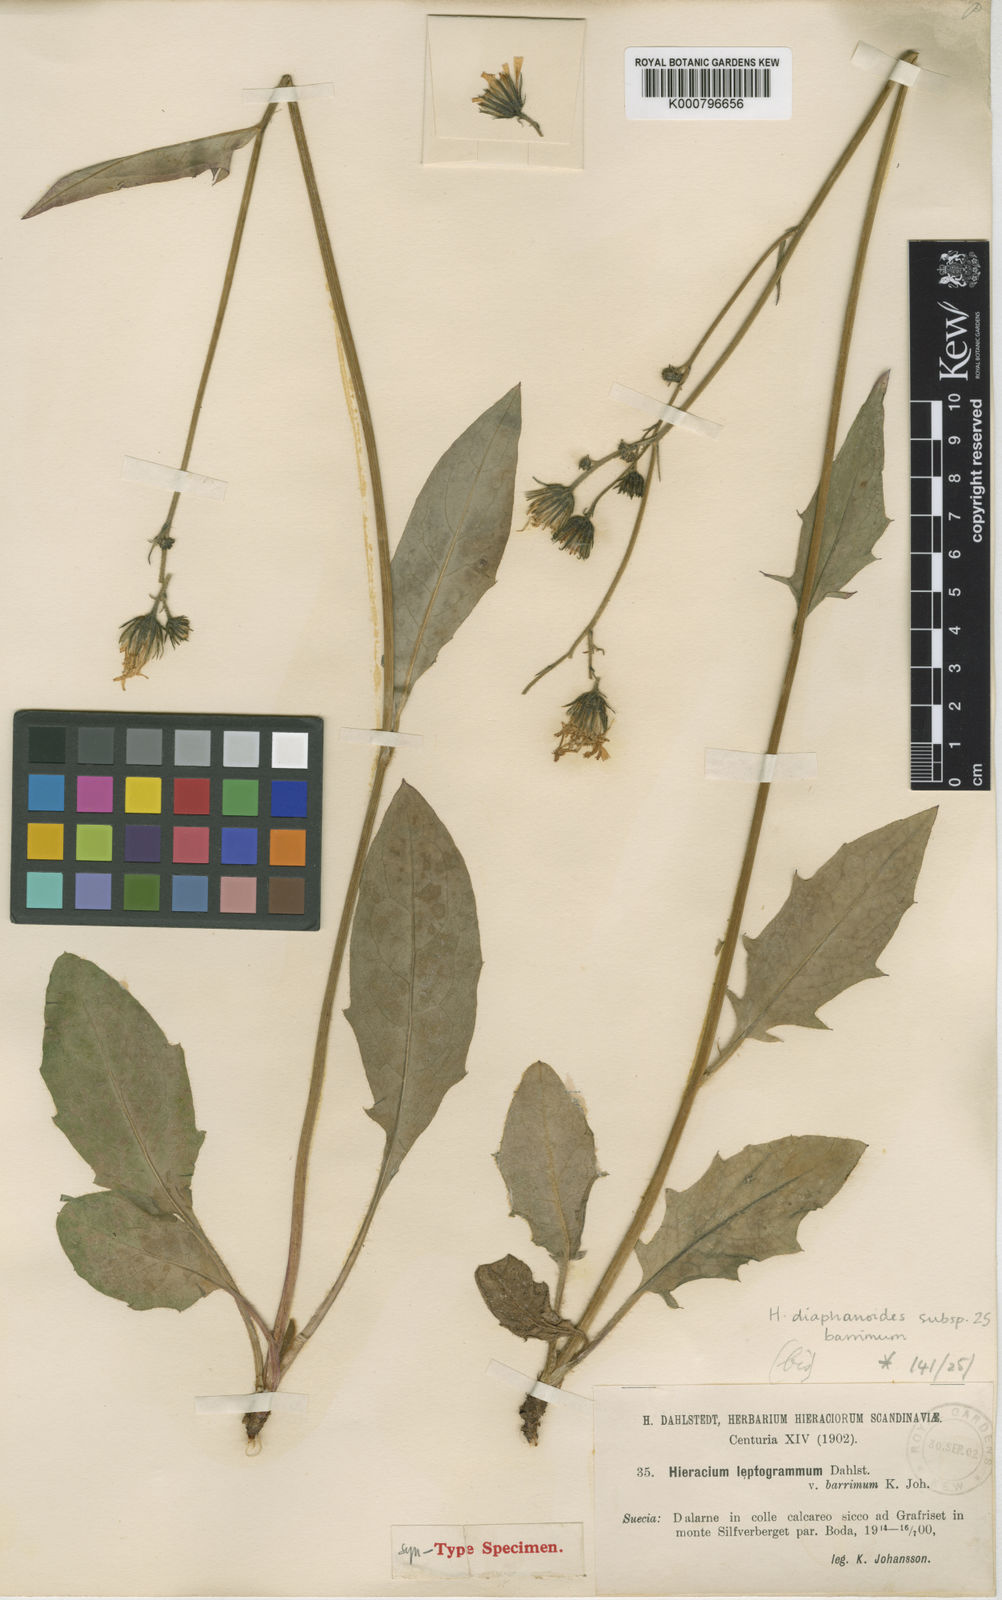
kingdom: Plantae
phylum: Tracheophyta
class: Magnoliopsida
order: Asterales
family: Asteraceae
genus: Hieracium
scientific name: Hieracium diaphanoides
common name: Fine-bracted hawkweed
